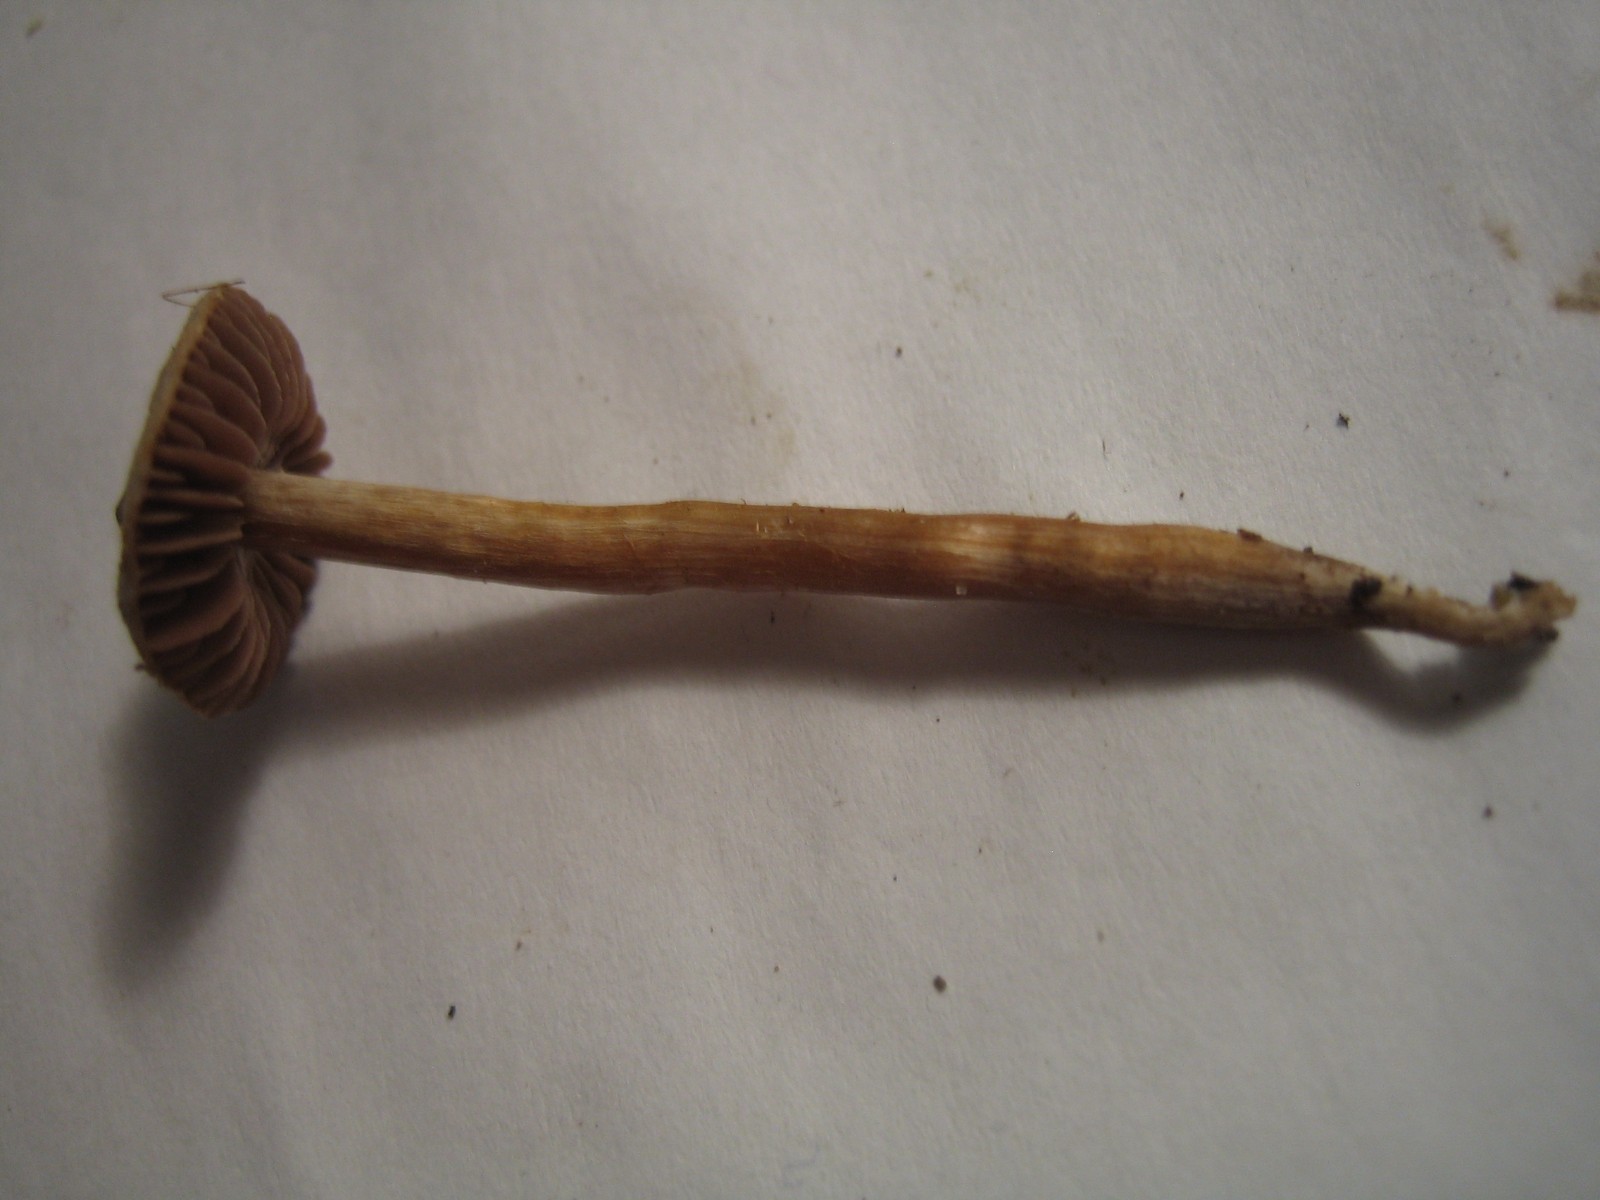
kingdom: Fungi
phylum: Basidiomycota
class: Agaricomycetes
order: Agaricales
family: Cortinariaceae
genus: Cortinarius
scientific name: Cortinarius
